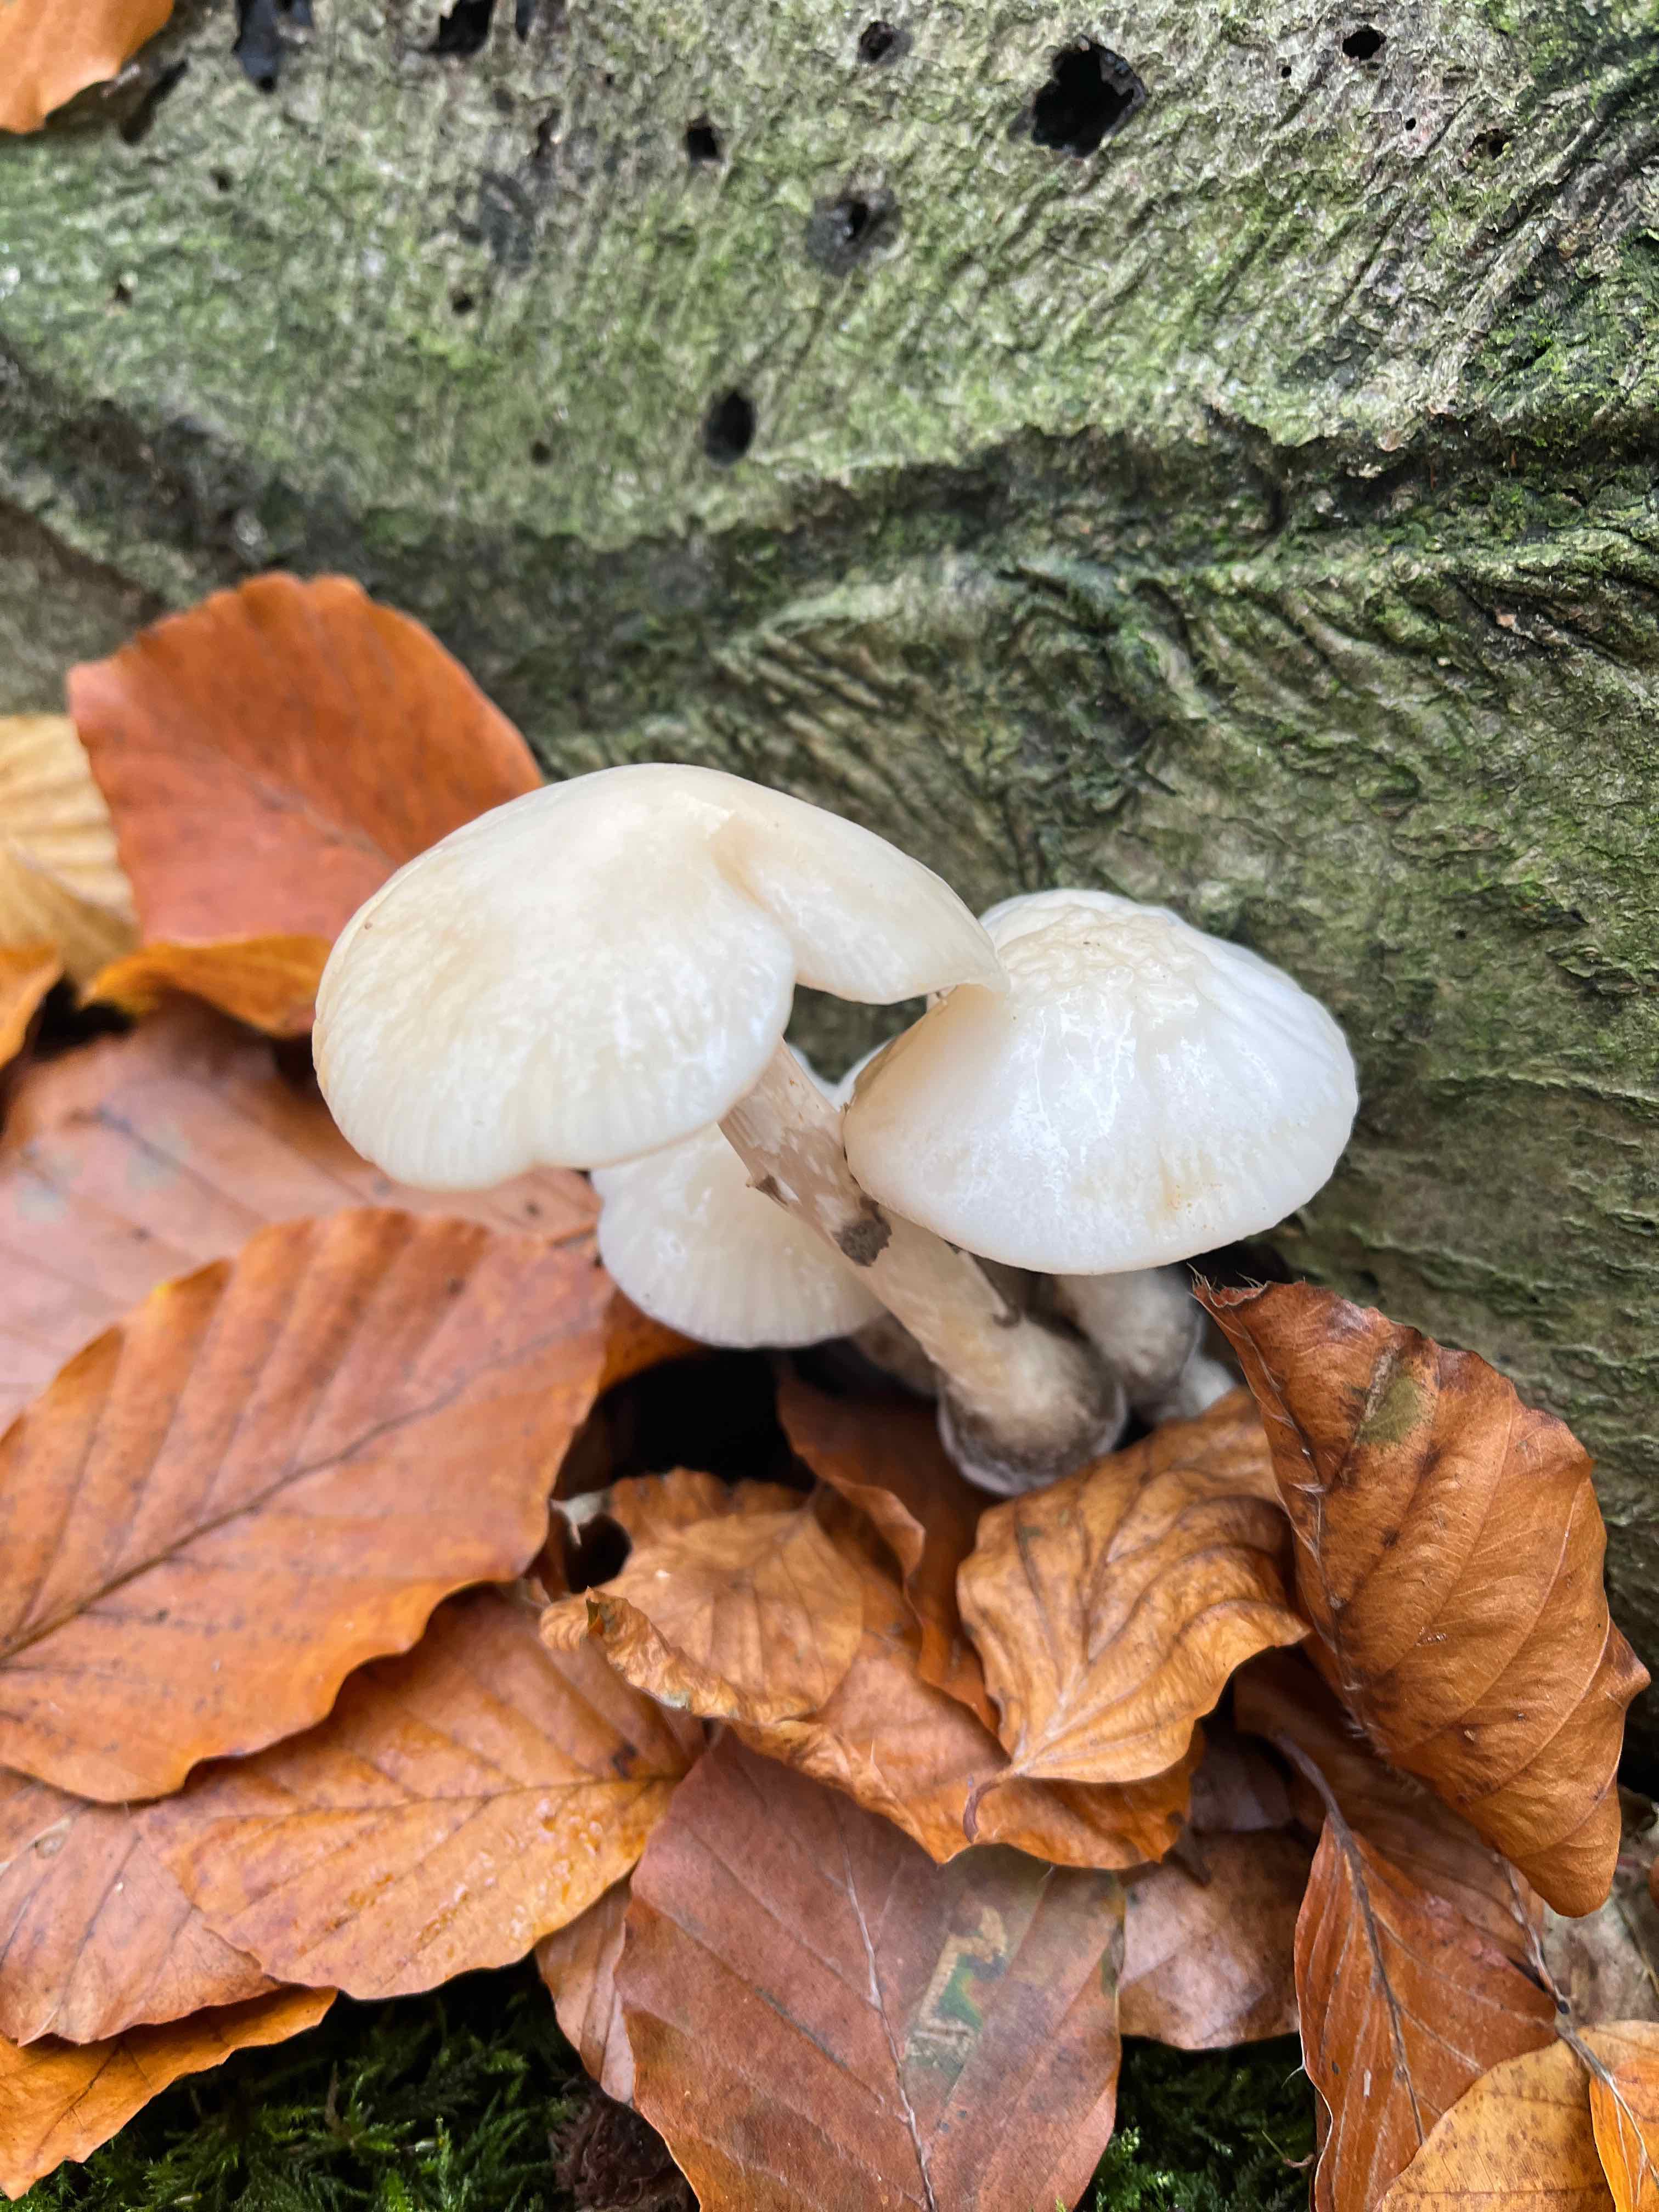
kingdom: Fungi
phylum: Basidiomycota
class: Agaricomycetes
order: Agaricales
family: Physalacriaceae
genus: Mucidula
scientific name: Mucidula mucida
